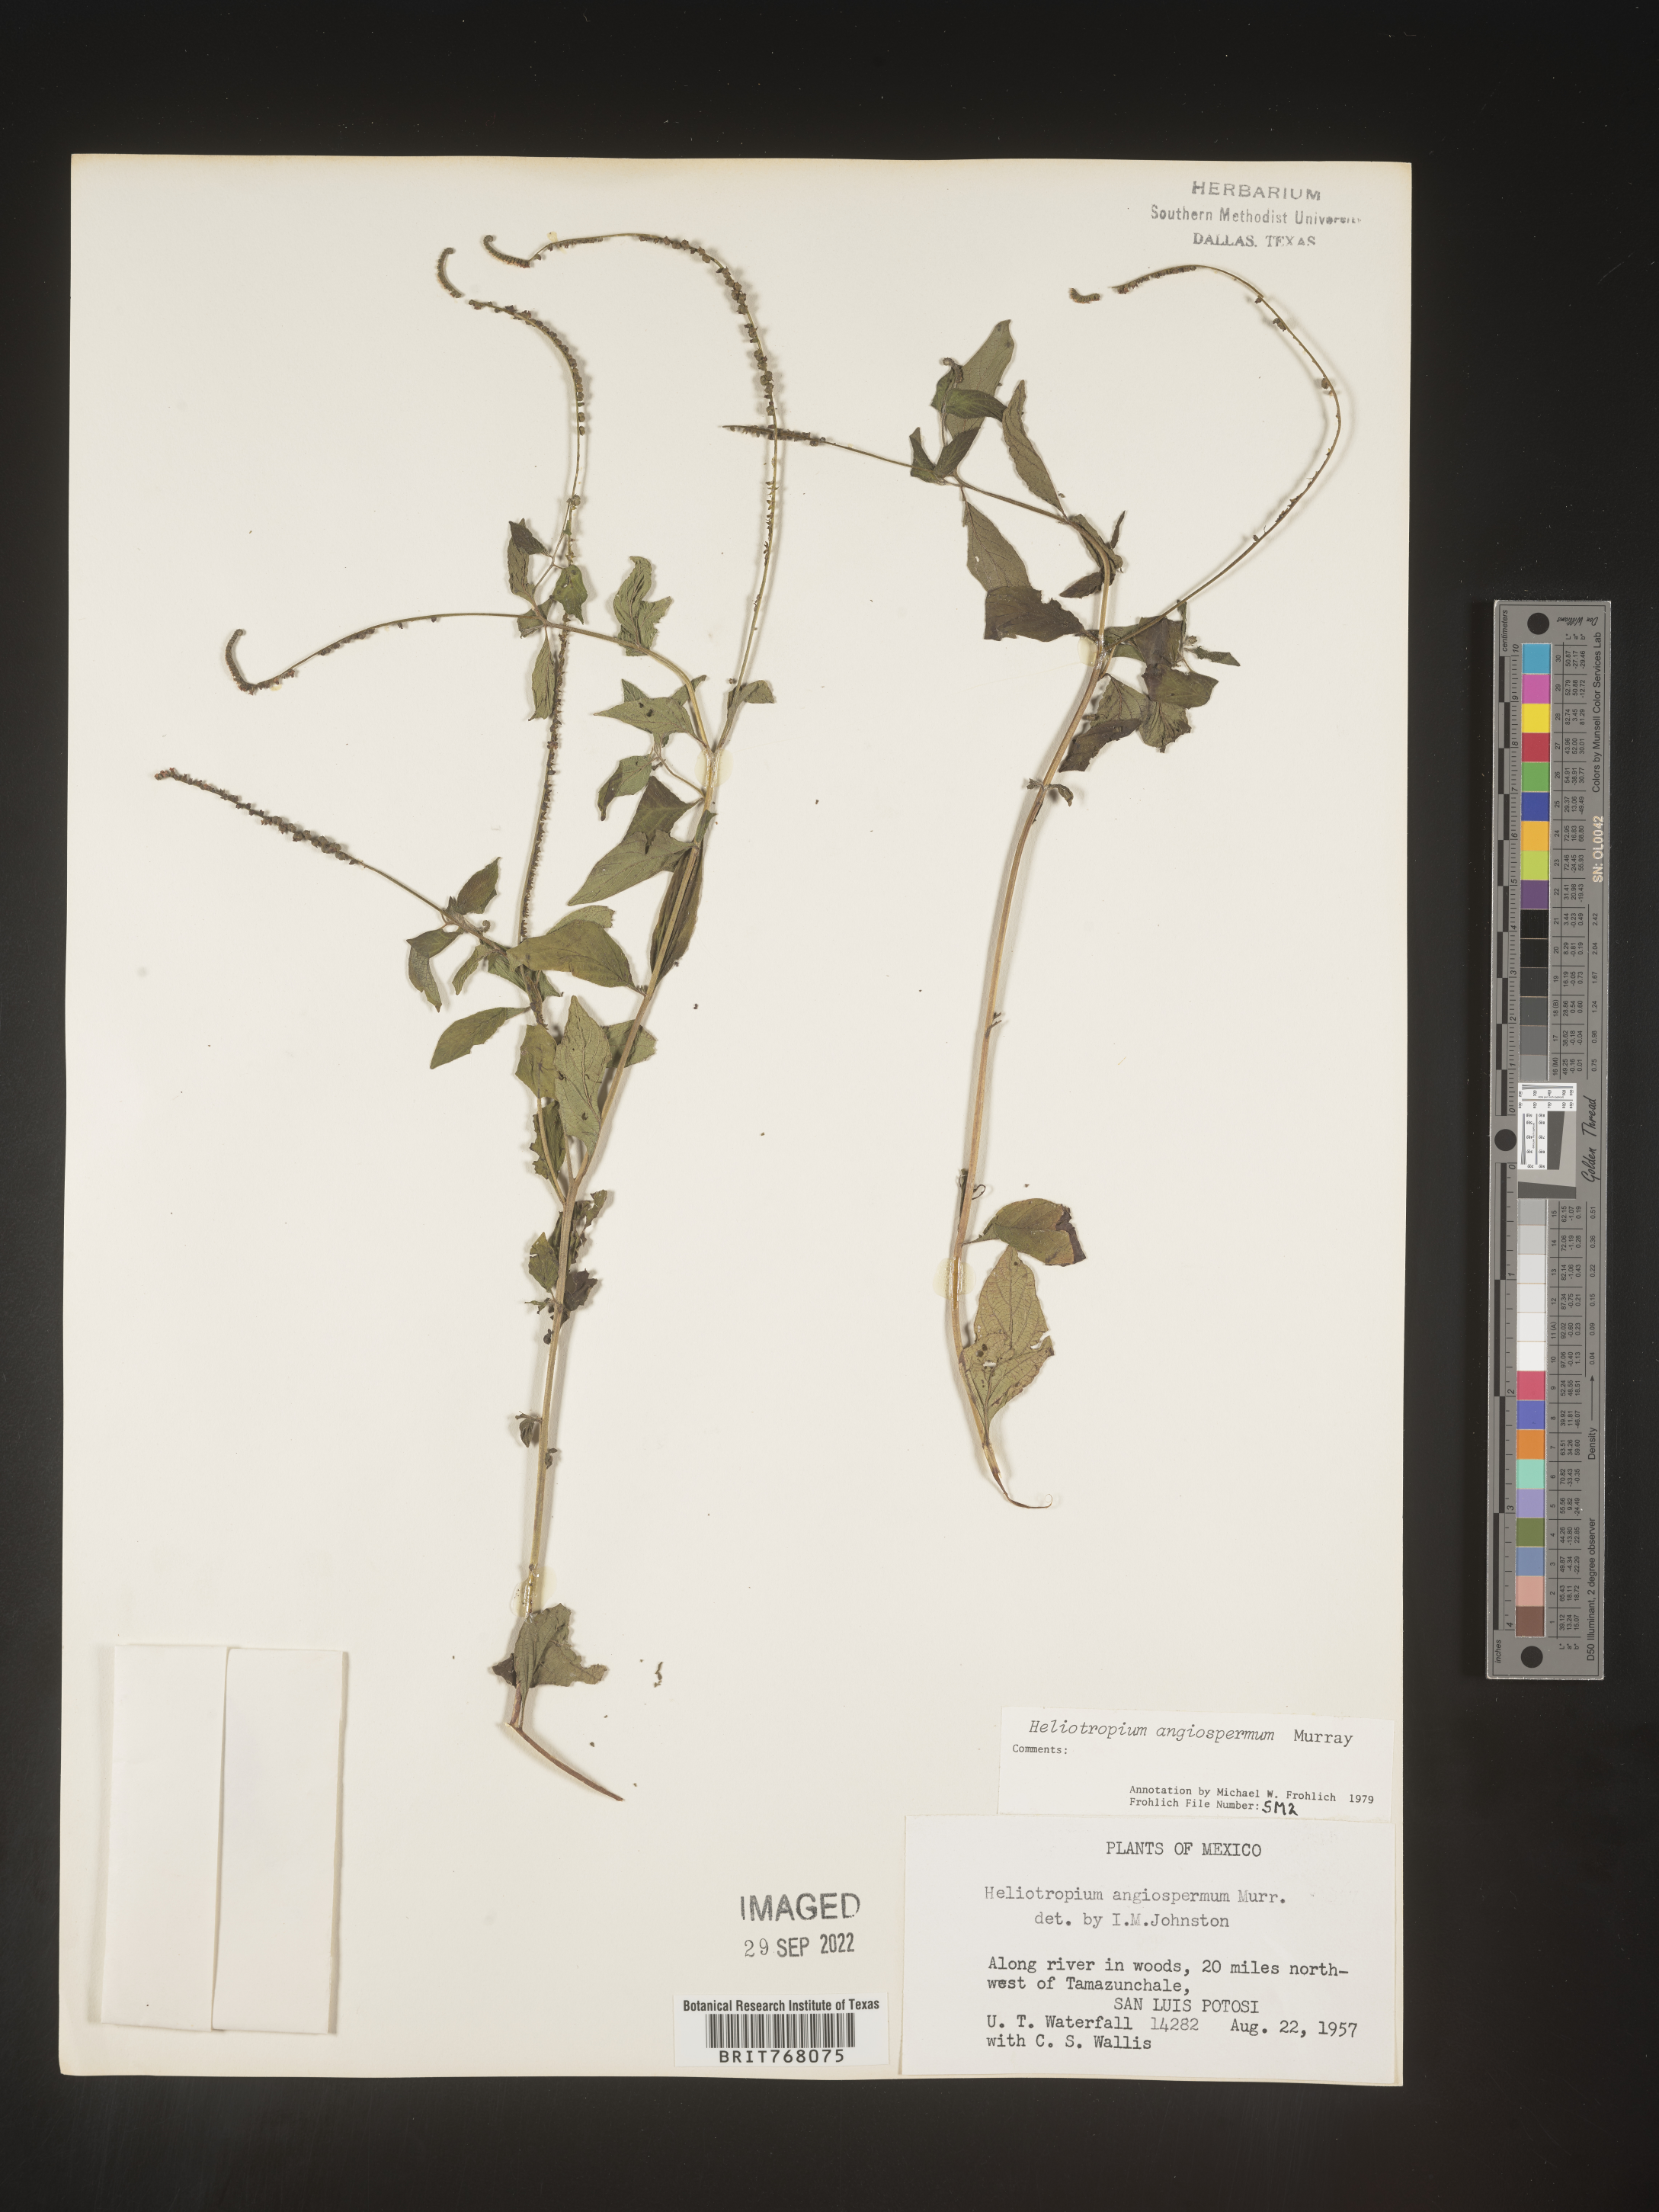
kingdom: Plantae
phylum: Tracheophyta
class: Magnoliopsida
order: Boraginales
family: Heliotropiaceae
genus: Heliotropium
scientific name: Heliotropium
